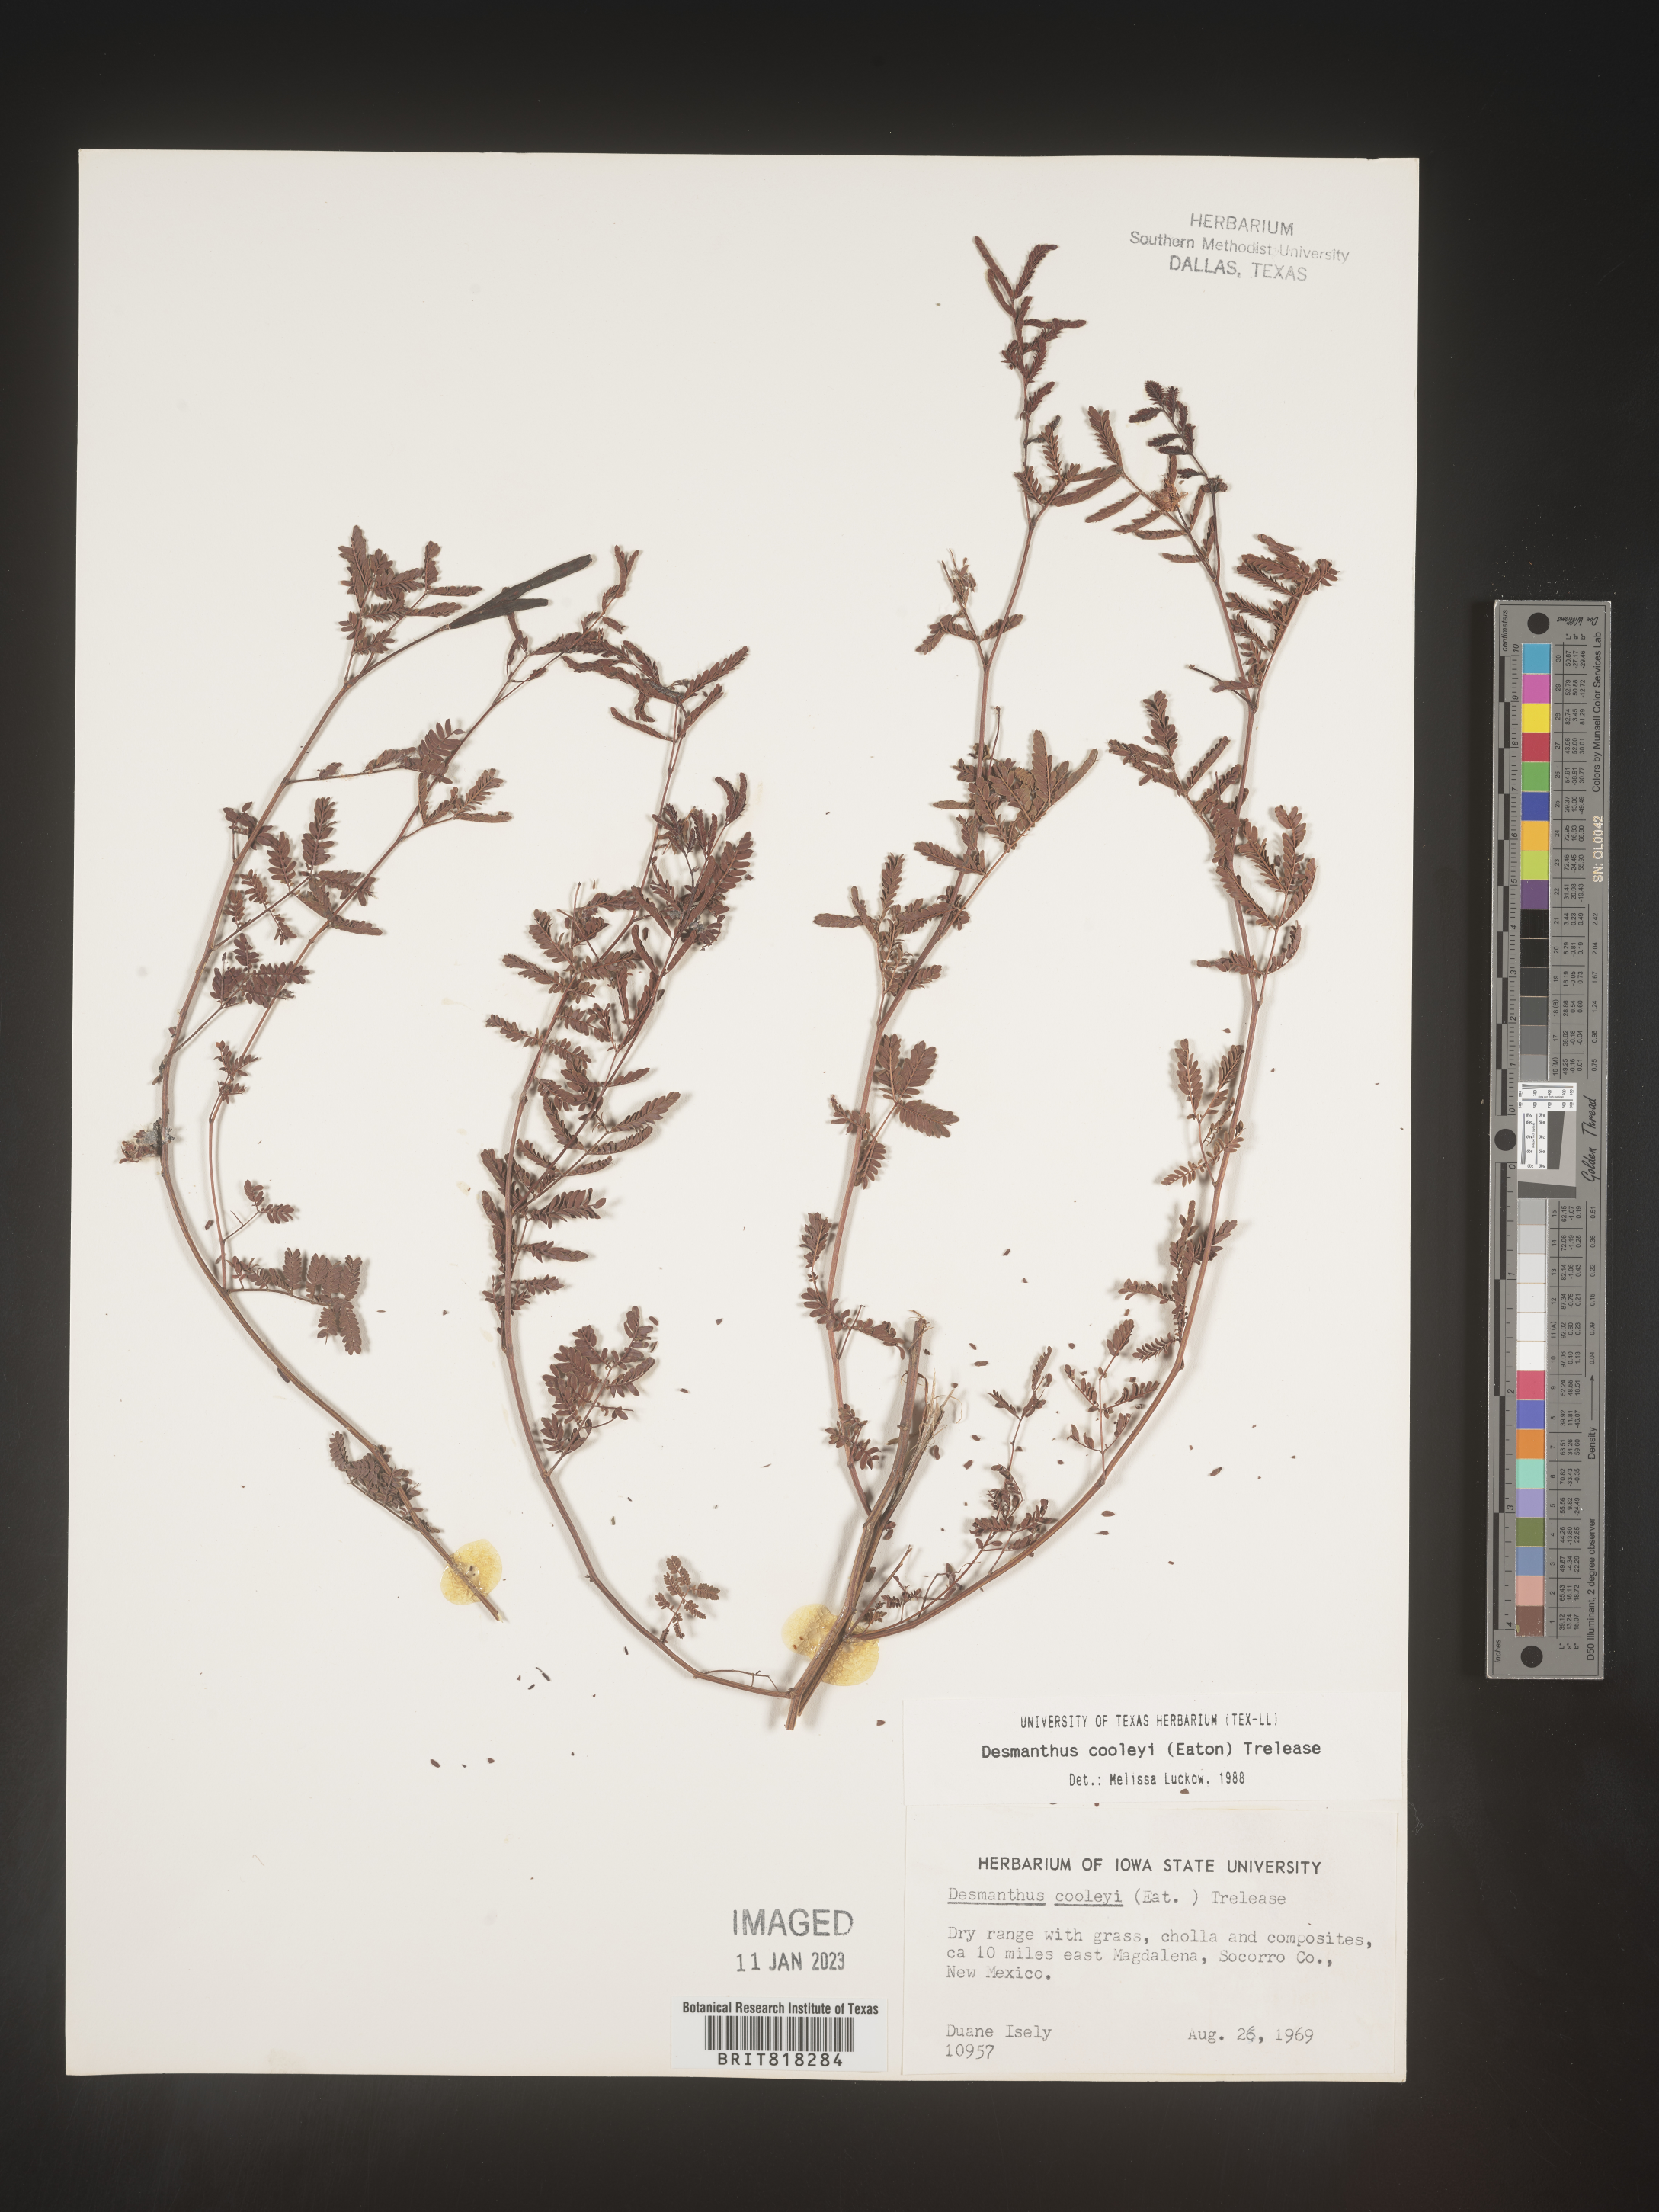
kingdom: Plantae
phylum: Tracheophyta
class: Magnoliopsida
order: Fabales
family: Fabaceae
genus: Desmanthus
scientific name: Desmanthus cooleyi
